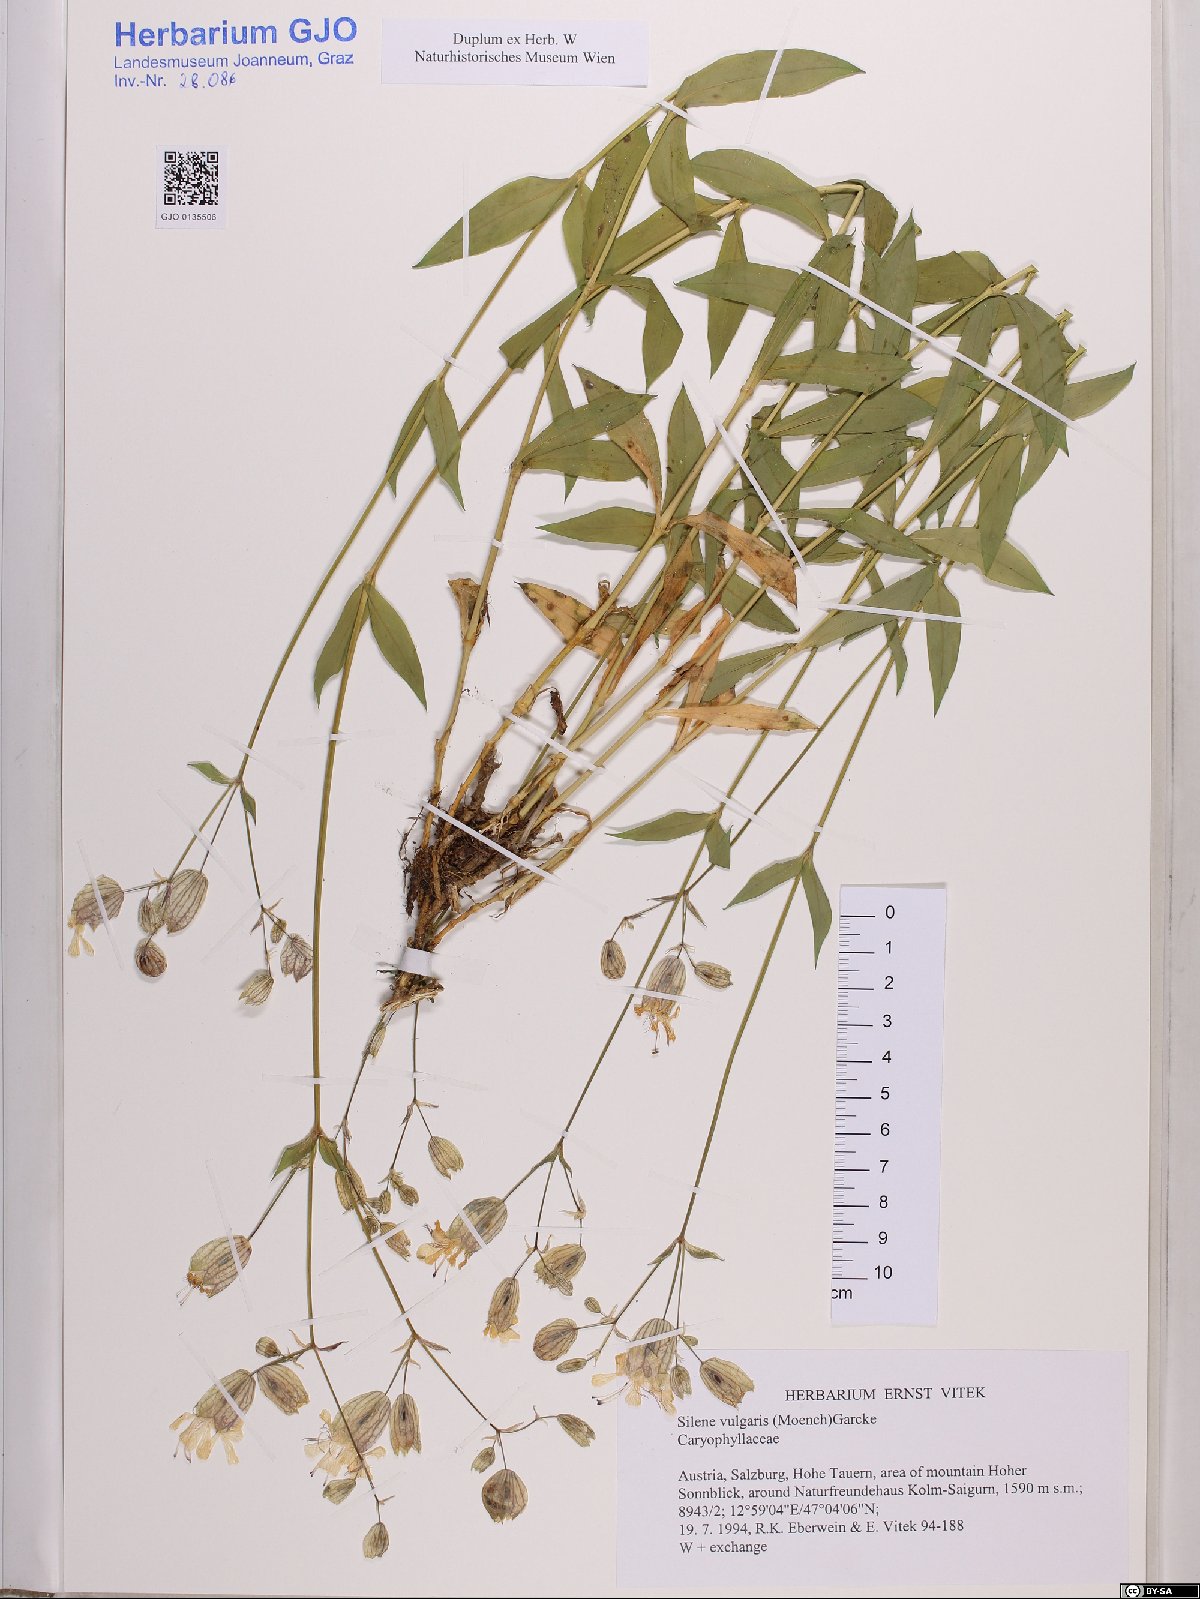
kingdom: Plantae
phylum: Tracheophyta
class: Magnoliopsida
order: Caryophyllales
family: Caryophyllaceae
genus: Silene
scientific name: Silene vulgaris
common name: Bladder campion
